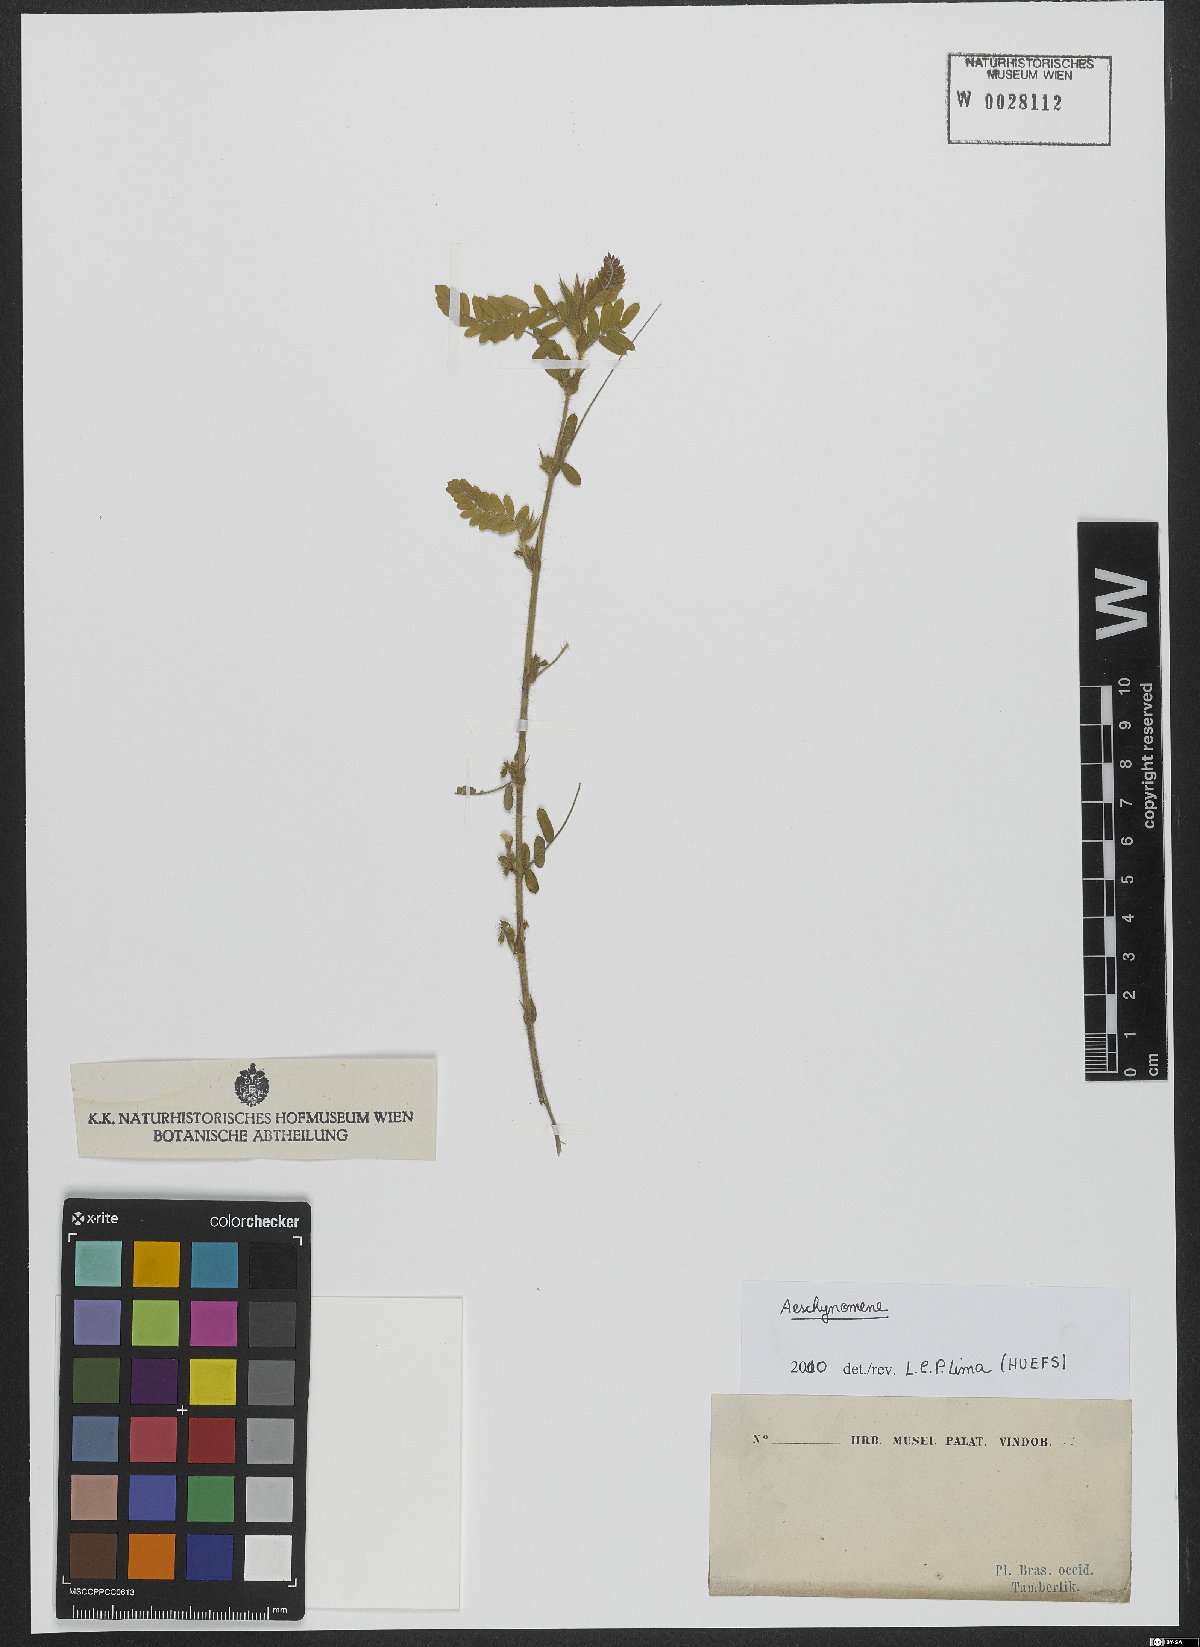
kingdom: Plantae
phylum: Tracheophyta
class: Magnoliopsida
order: Fabales
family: Fabaceae
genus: Aeschynomene
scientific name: Aeschynomene
